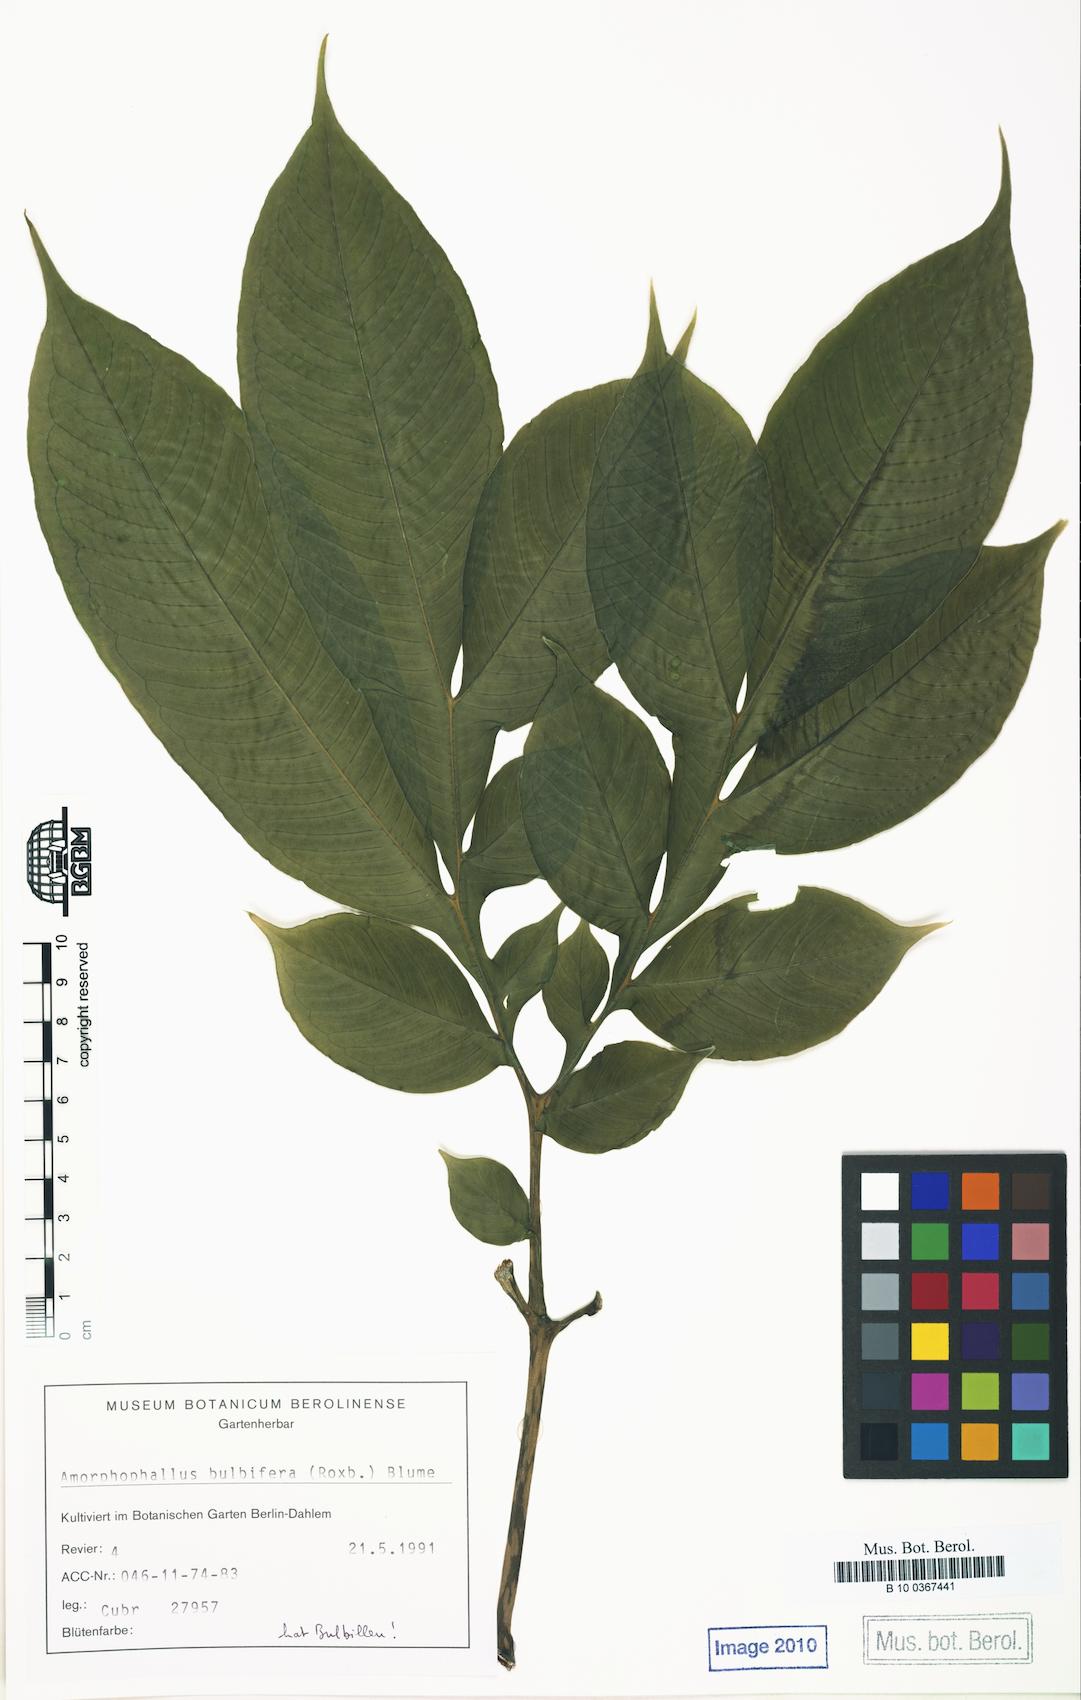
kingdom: Plantae
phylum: Tracheophyta
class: Liliopsida
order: Alismatales
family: Araceae
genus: Amorphophallus
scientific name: Amorphophallus bulbifer
